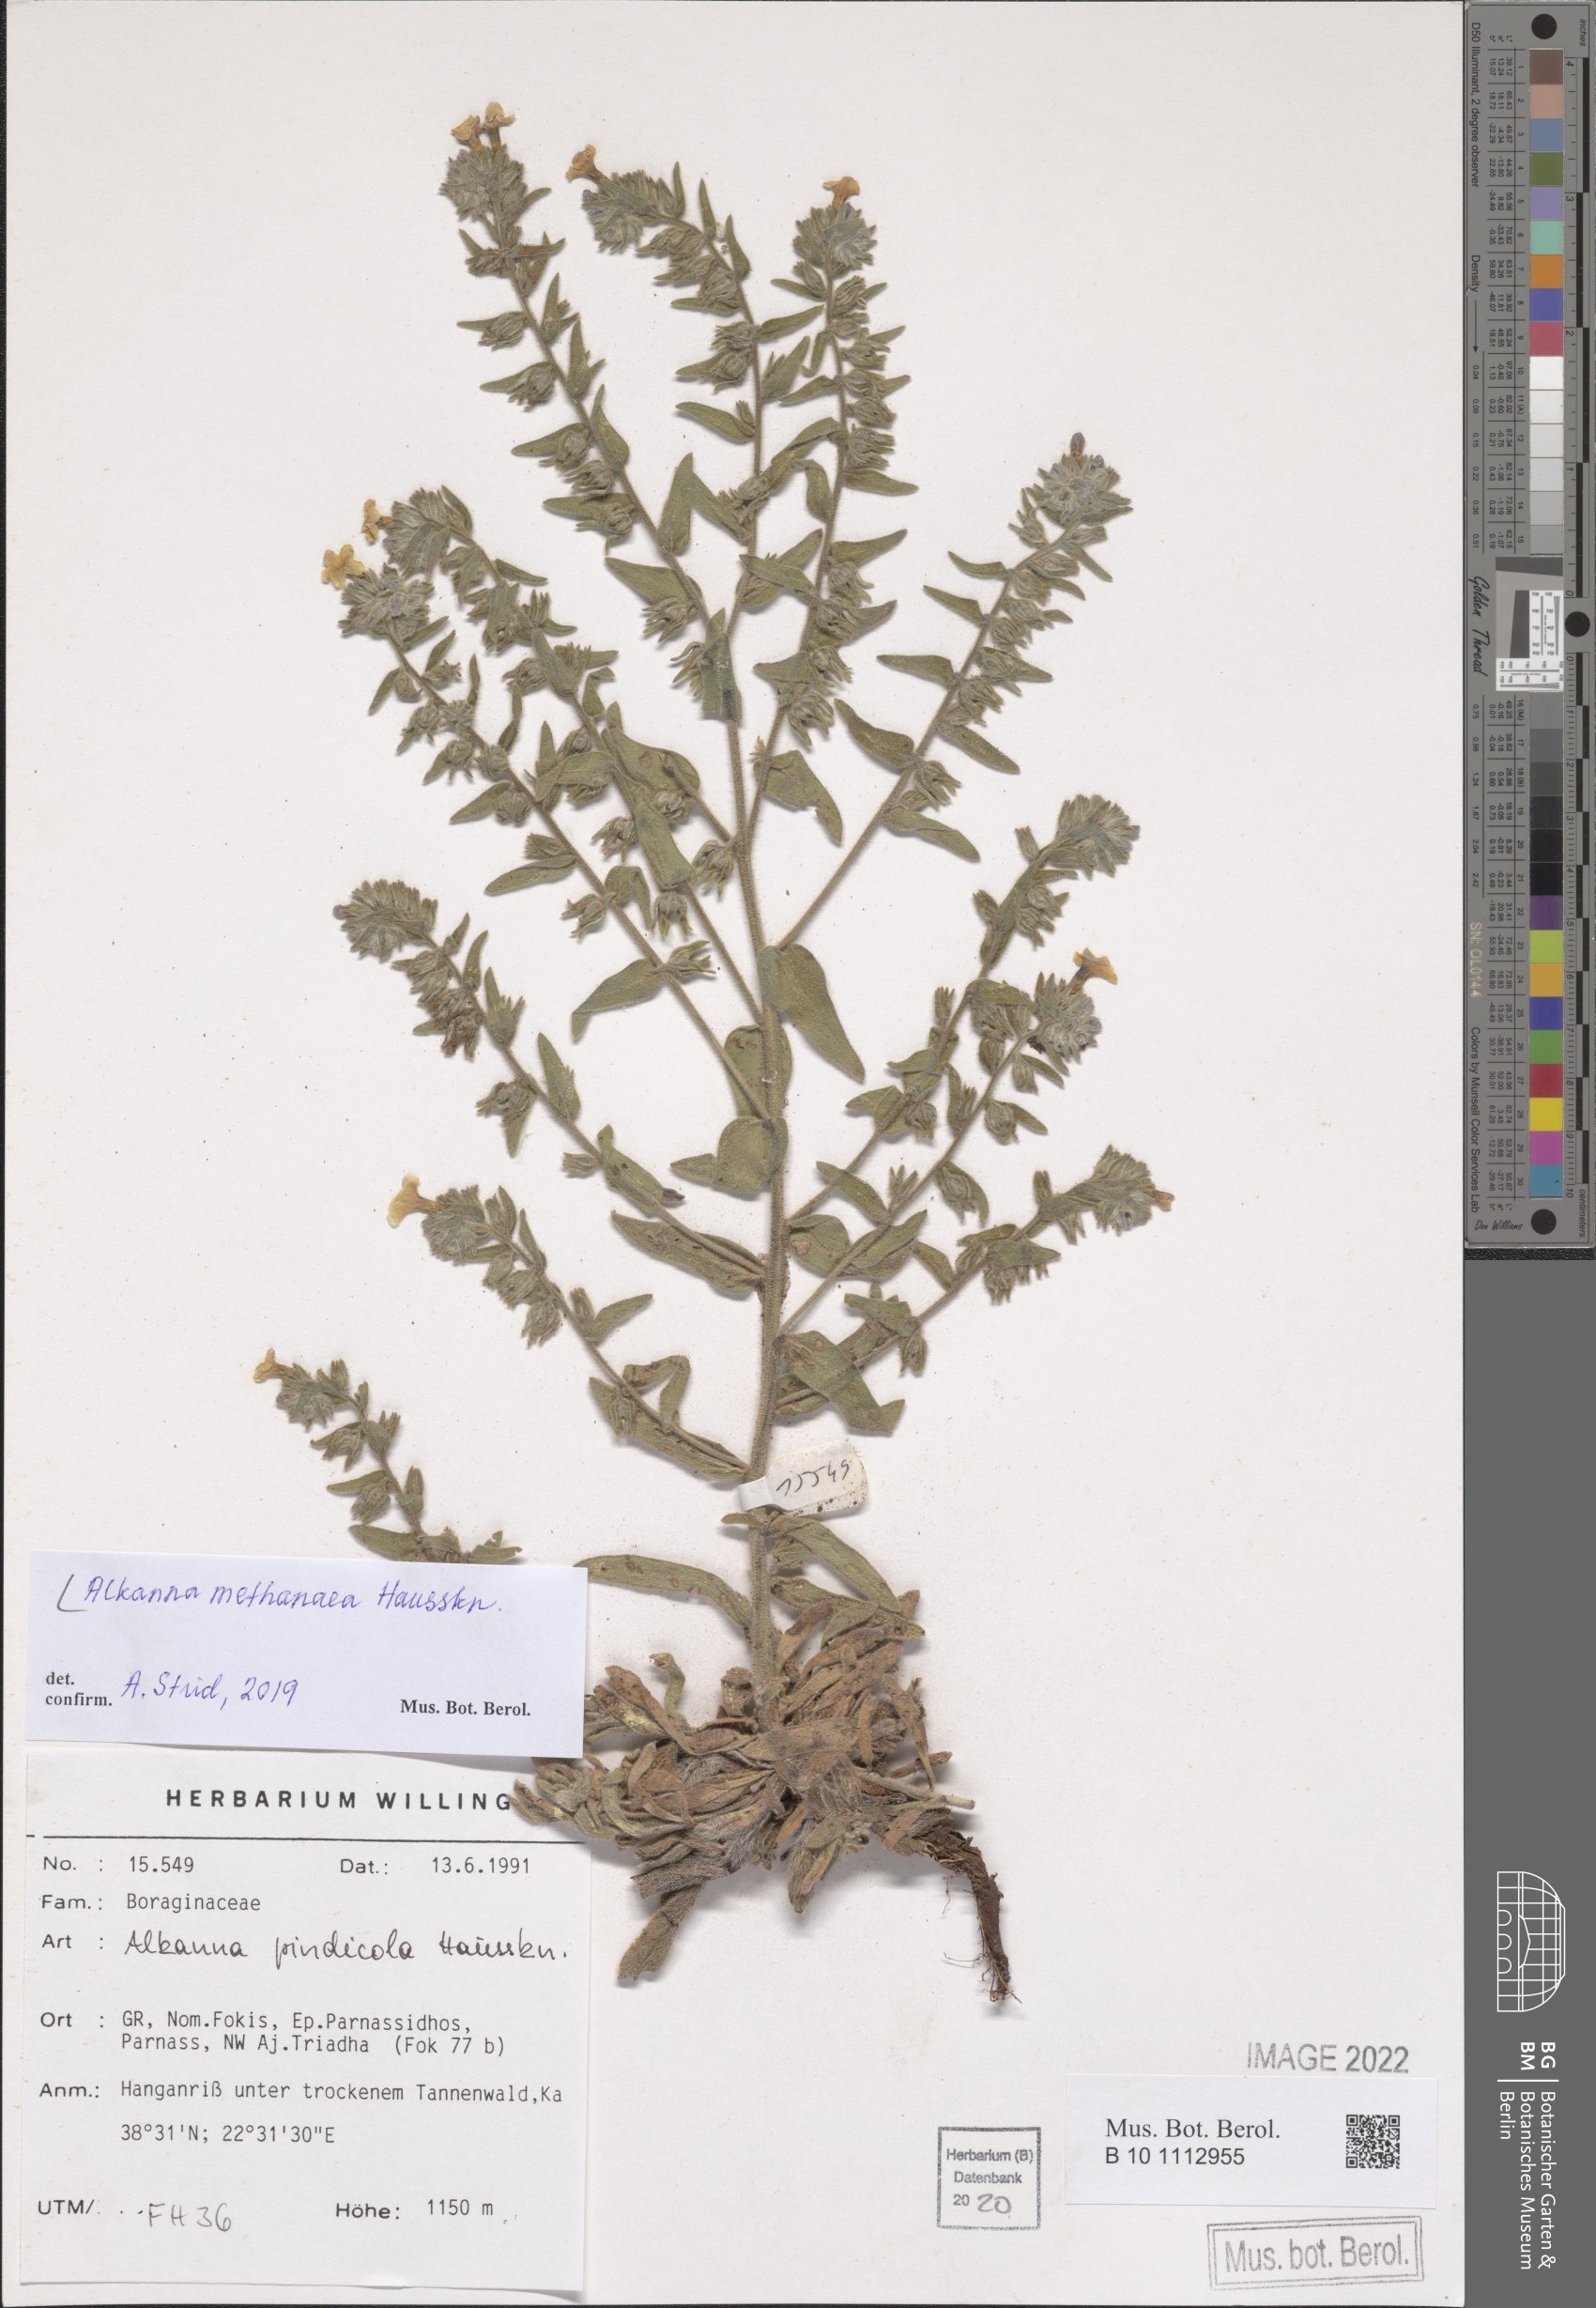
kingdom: Plantae
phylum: Tracheophyta
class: Magnoliopsida
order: Boraginales
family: Boraginaceae
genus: Alkanna
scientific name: Alkanna methanaea
